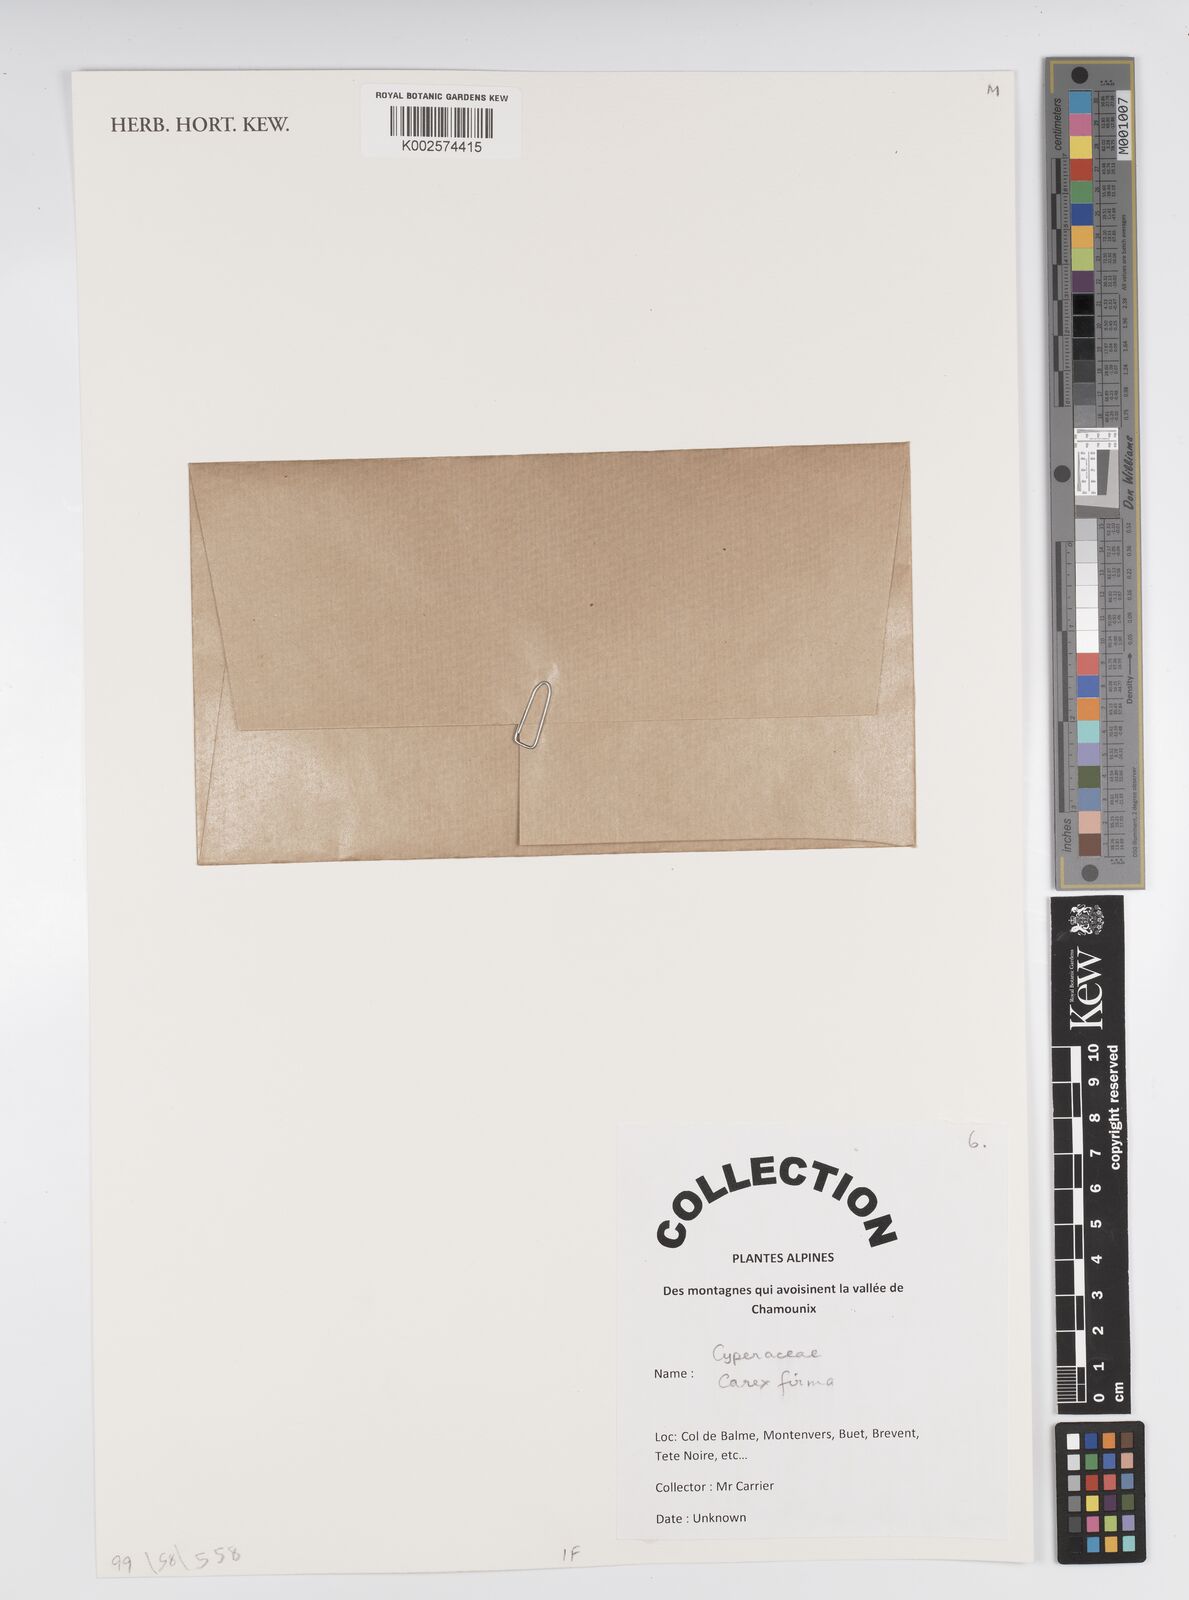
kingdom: Plantae
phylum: Tracheophyta
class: Liliopsida
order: Poales
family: Cyperaceae
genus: Carex
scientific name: Carex firma
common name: Dwarf pillow sedge
